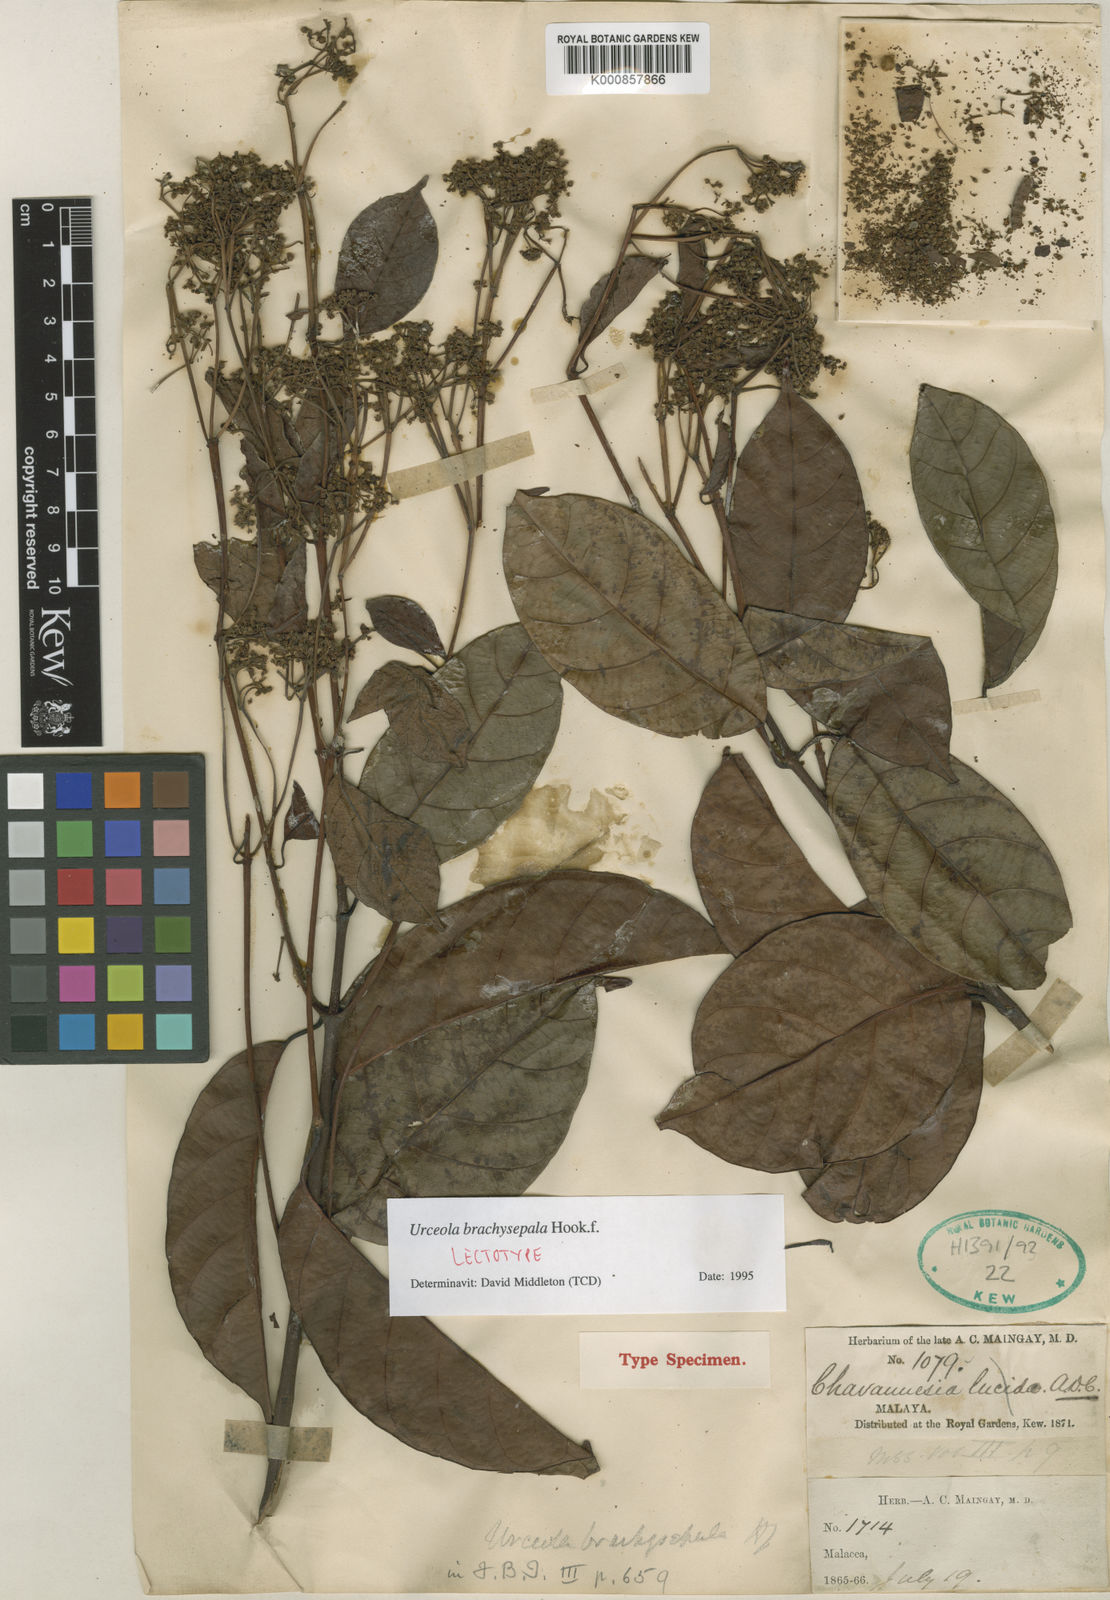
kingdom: Plantae
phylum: Tracheophyta
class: Magnoliopsida
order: Gentianales
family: Apocynaceae
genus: Urceola
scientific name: Urceola brachysepala
